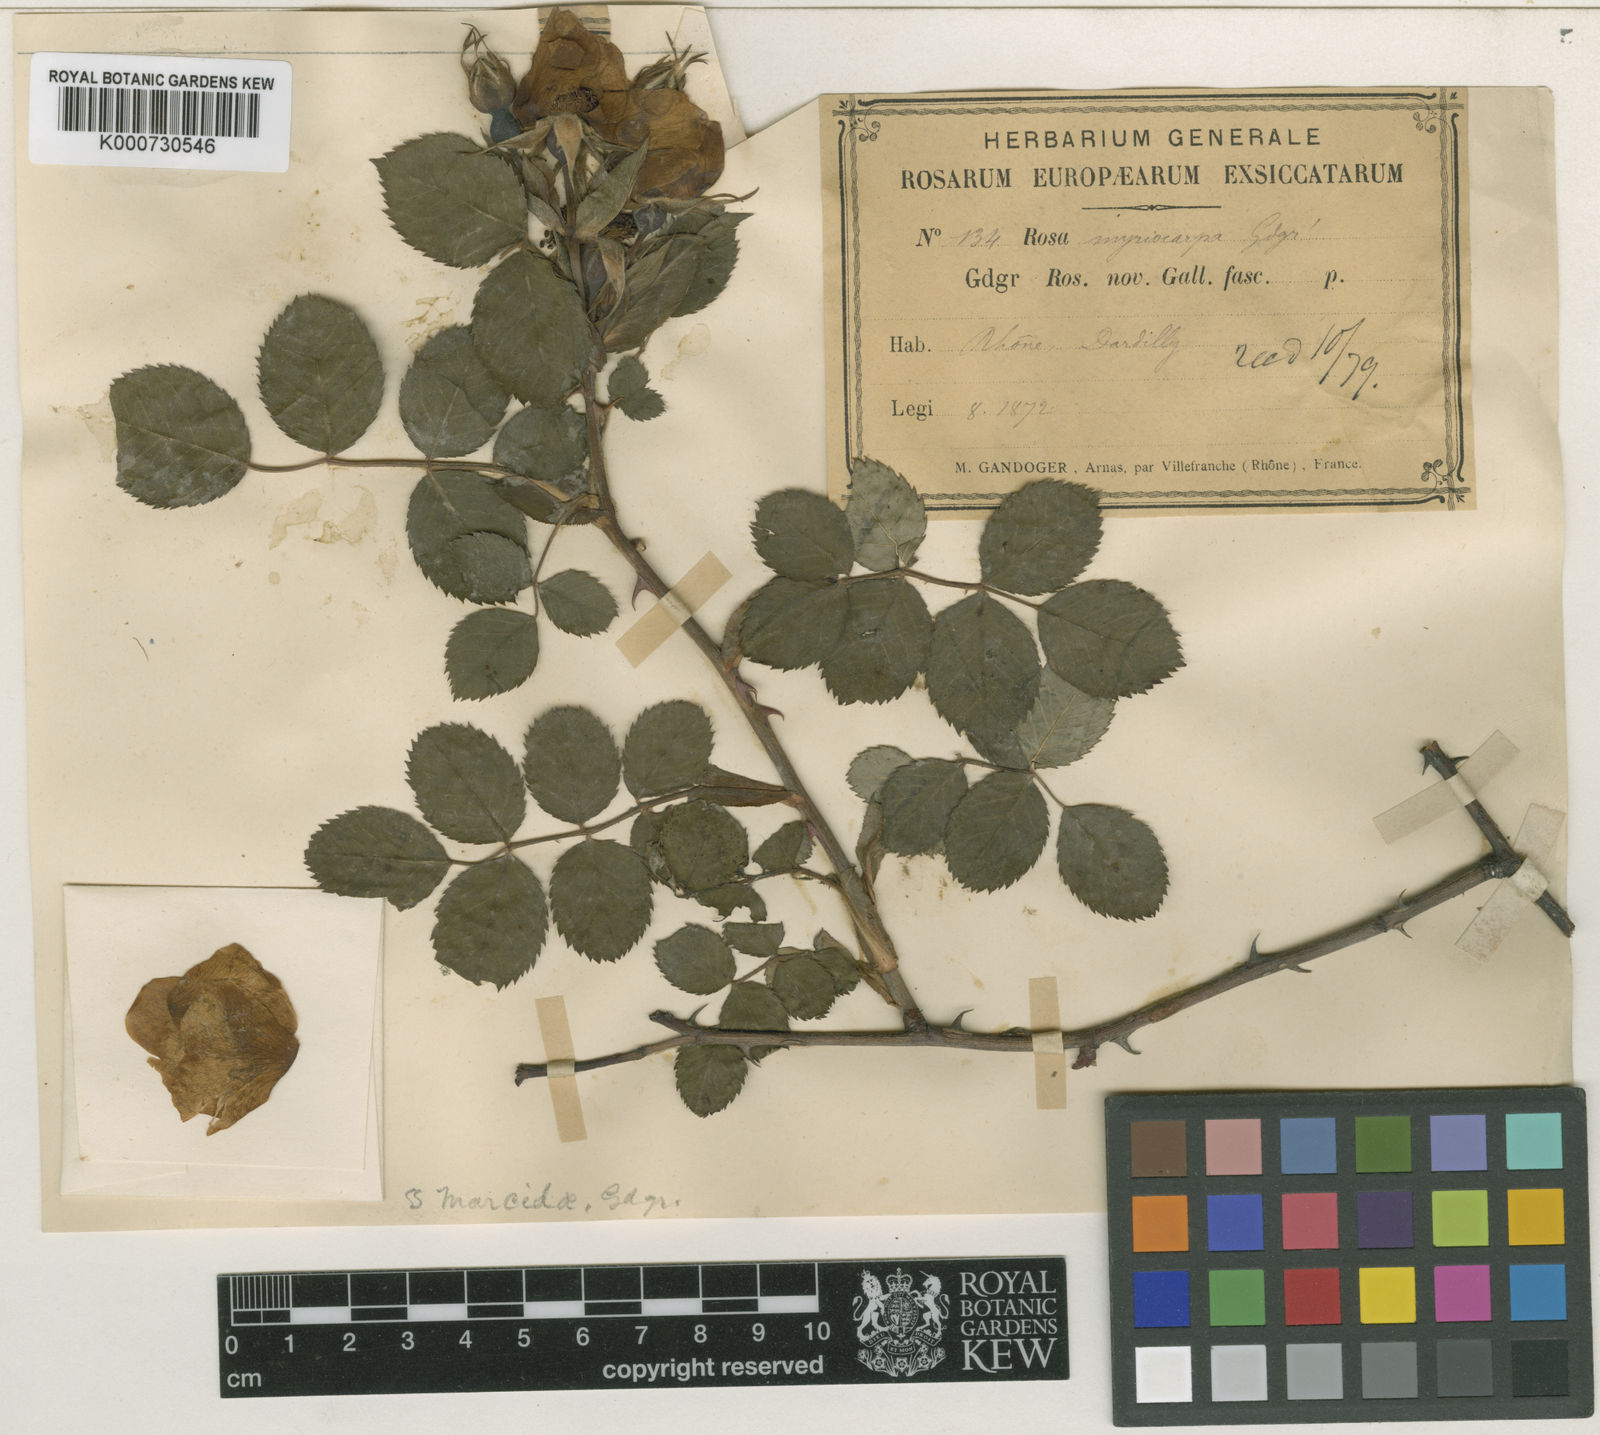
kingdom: Plantae
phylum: Tracheophyta
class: Magnoliopsida
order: Rosales
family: Rosaceae
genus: Rosa
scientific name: Rosa canina
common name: Dog rose
